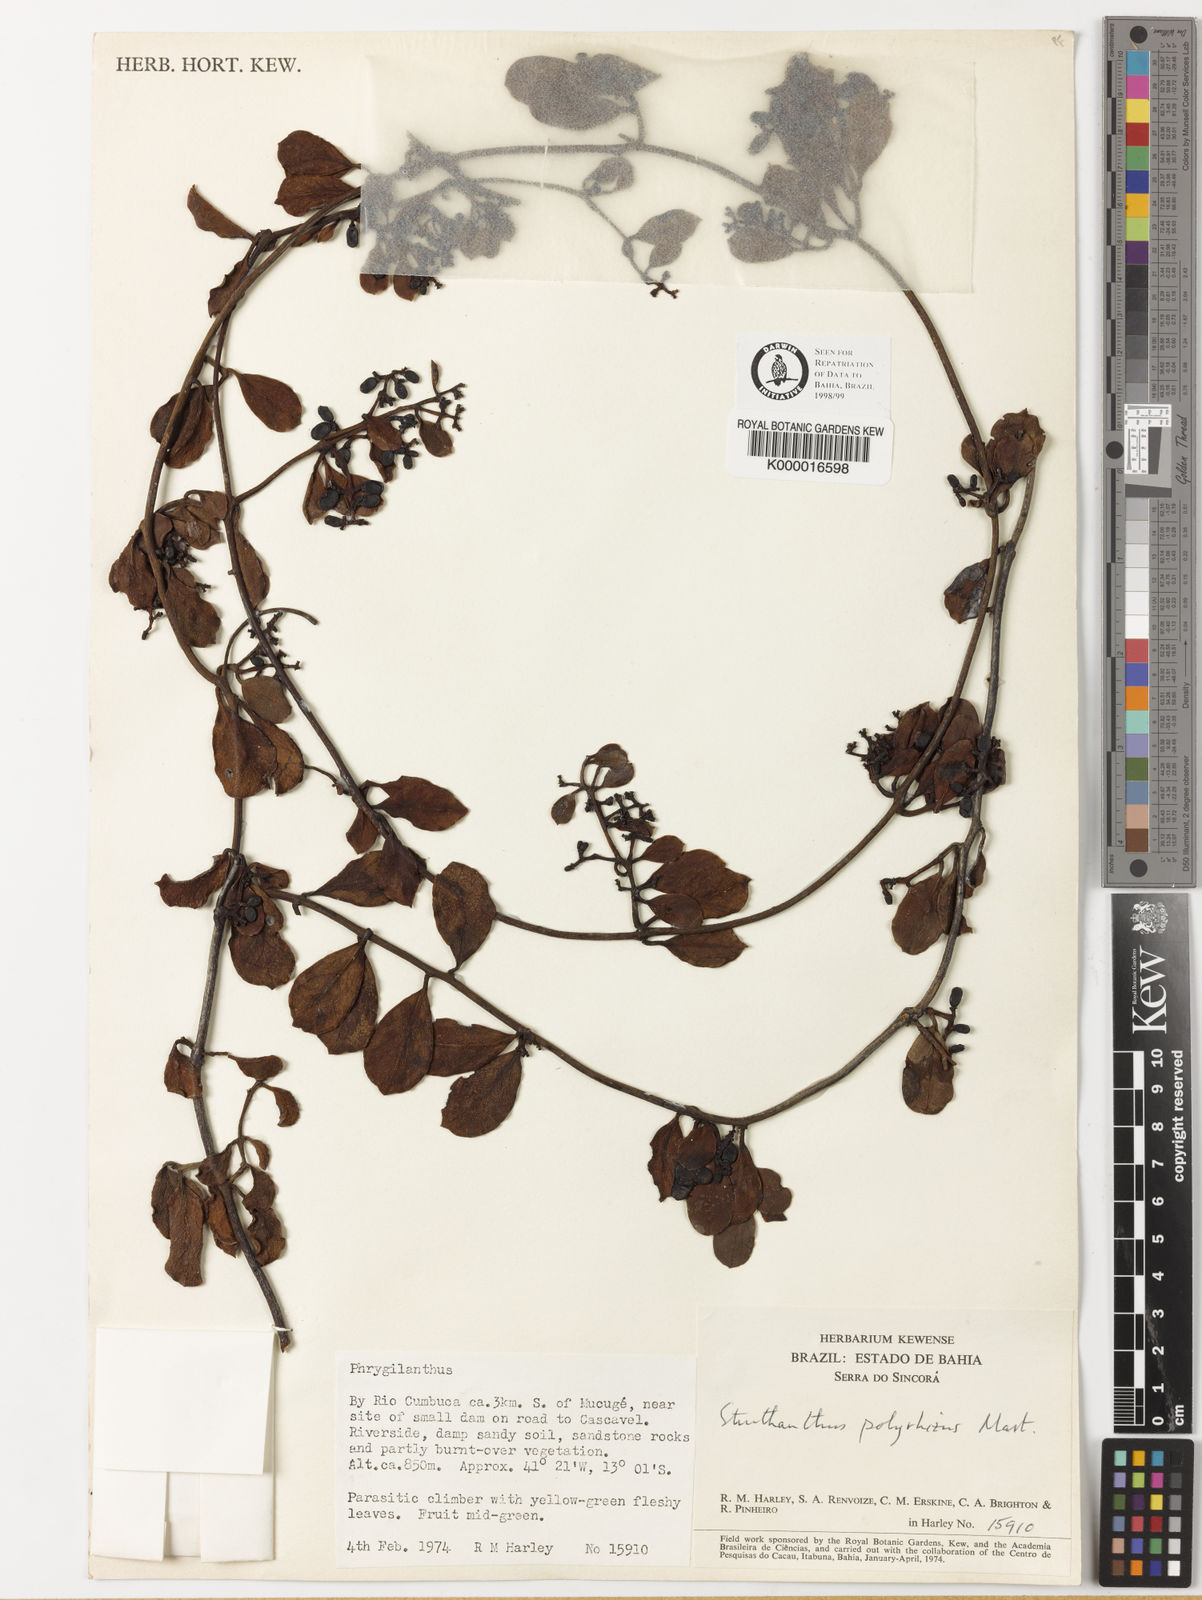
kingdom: Plantae
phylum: Tracheophyta
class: Magnoliopsida
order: Santalales
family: Loranthaceae
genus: Struthanthus
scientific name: Struthanthus retusus
